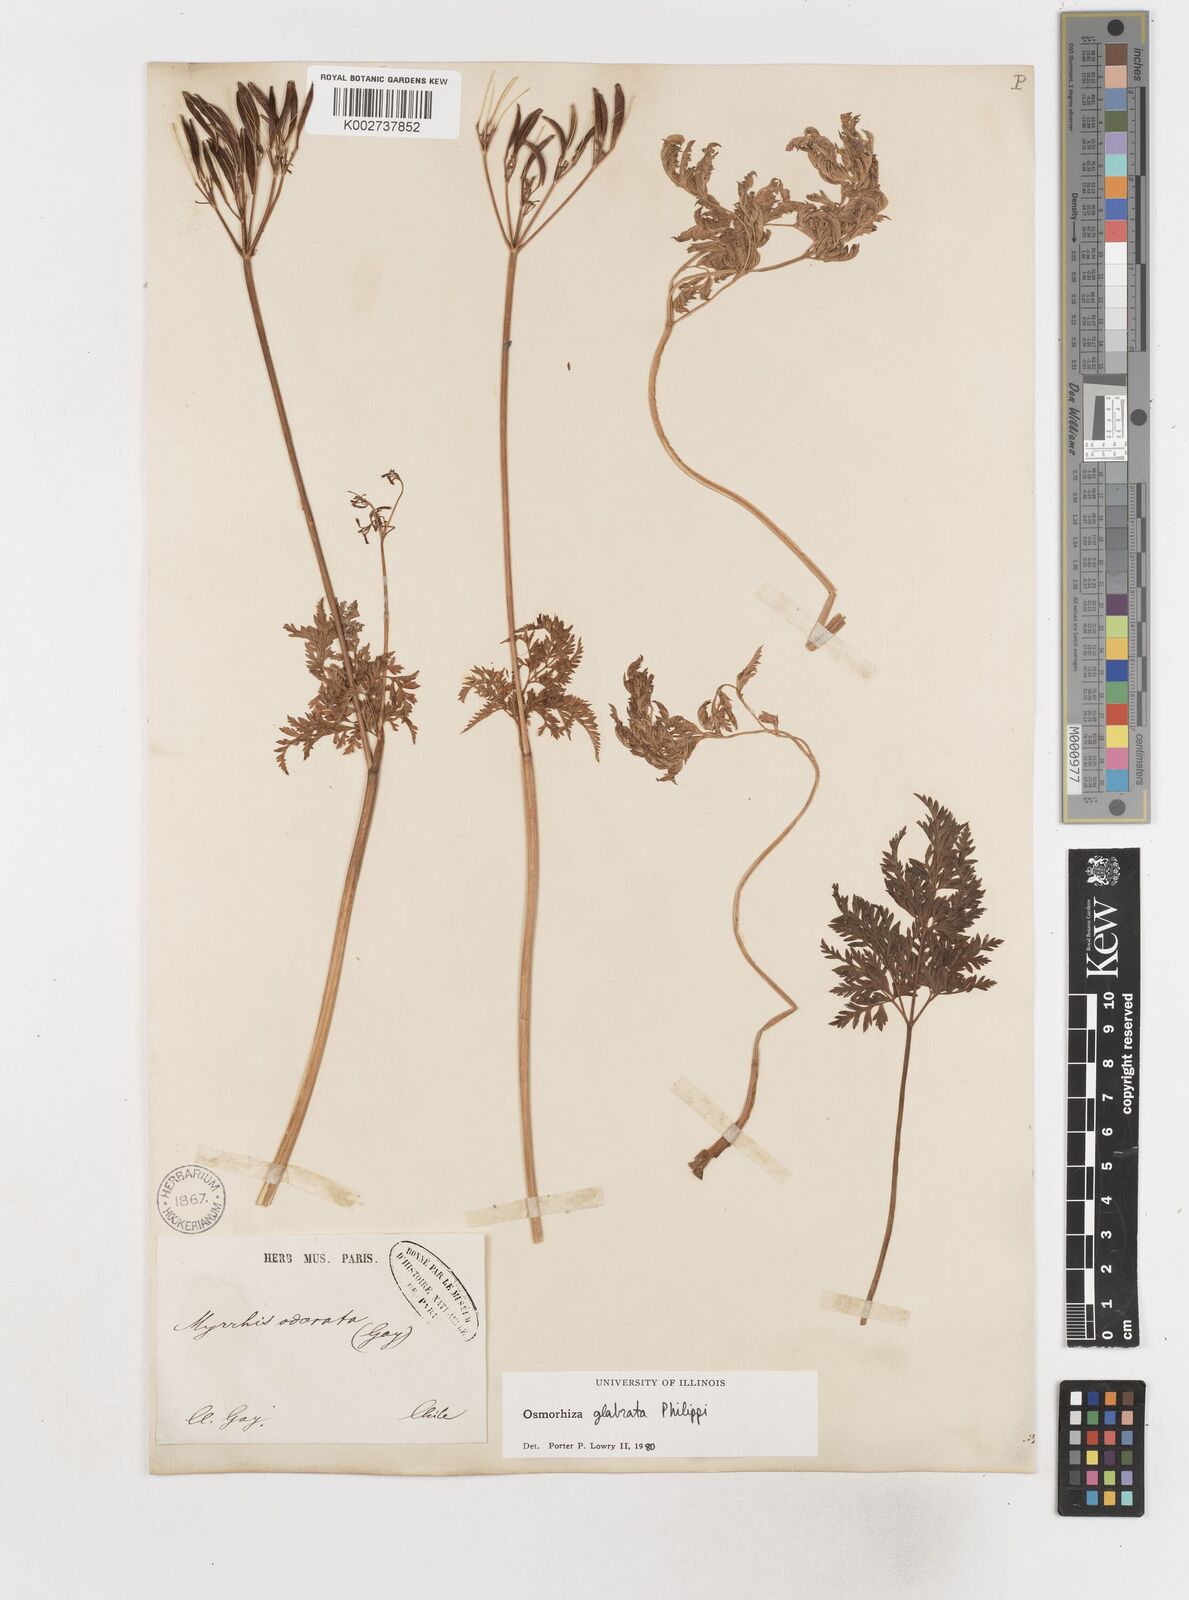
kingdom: Plantae
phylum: Tracheophyta
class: Magnoliopsida
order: Apiales
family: Apiaceae
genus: Osmorhiza
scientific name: Osmorhiza glabrata
